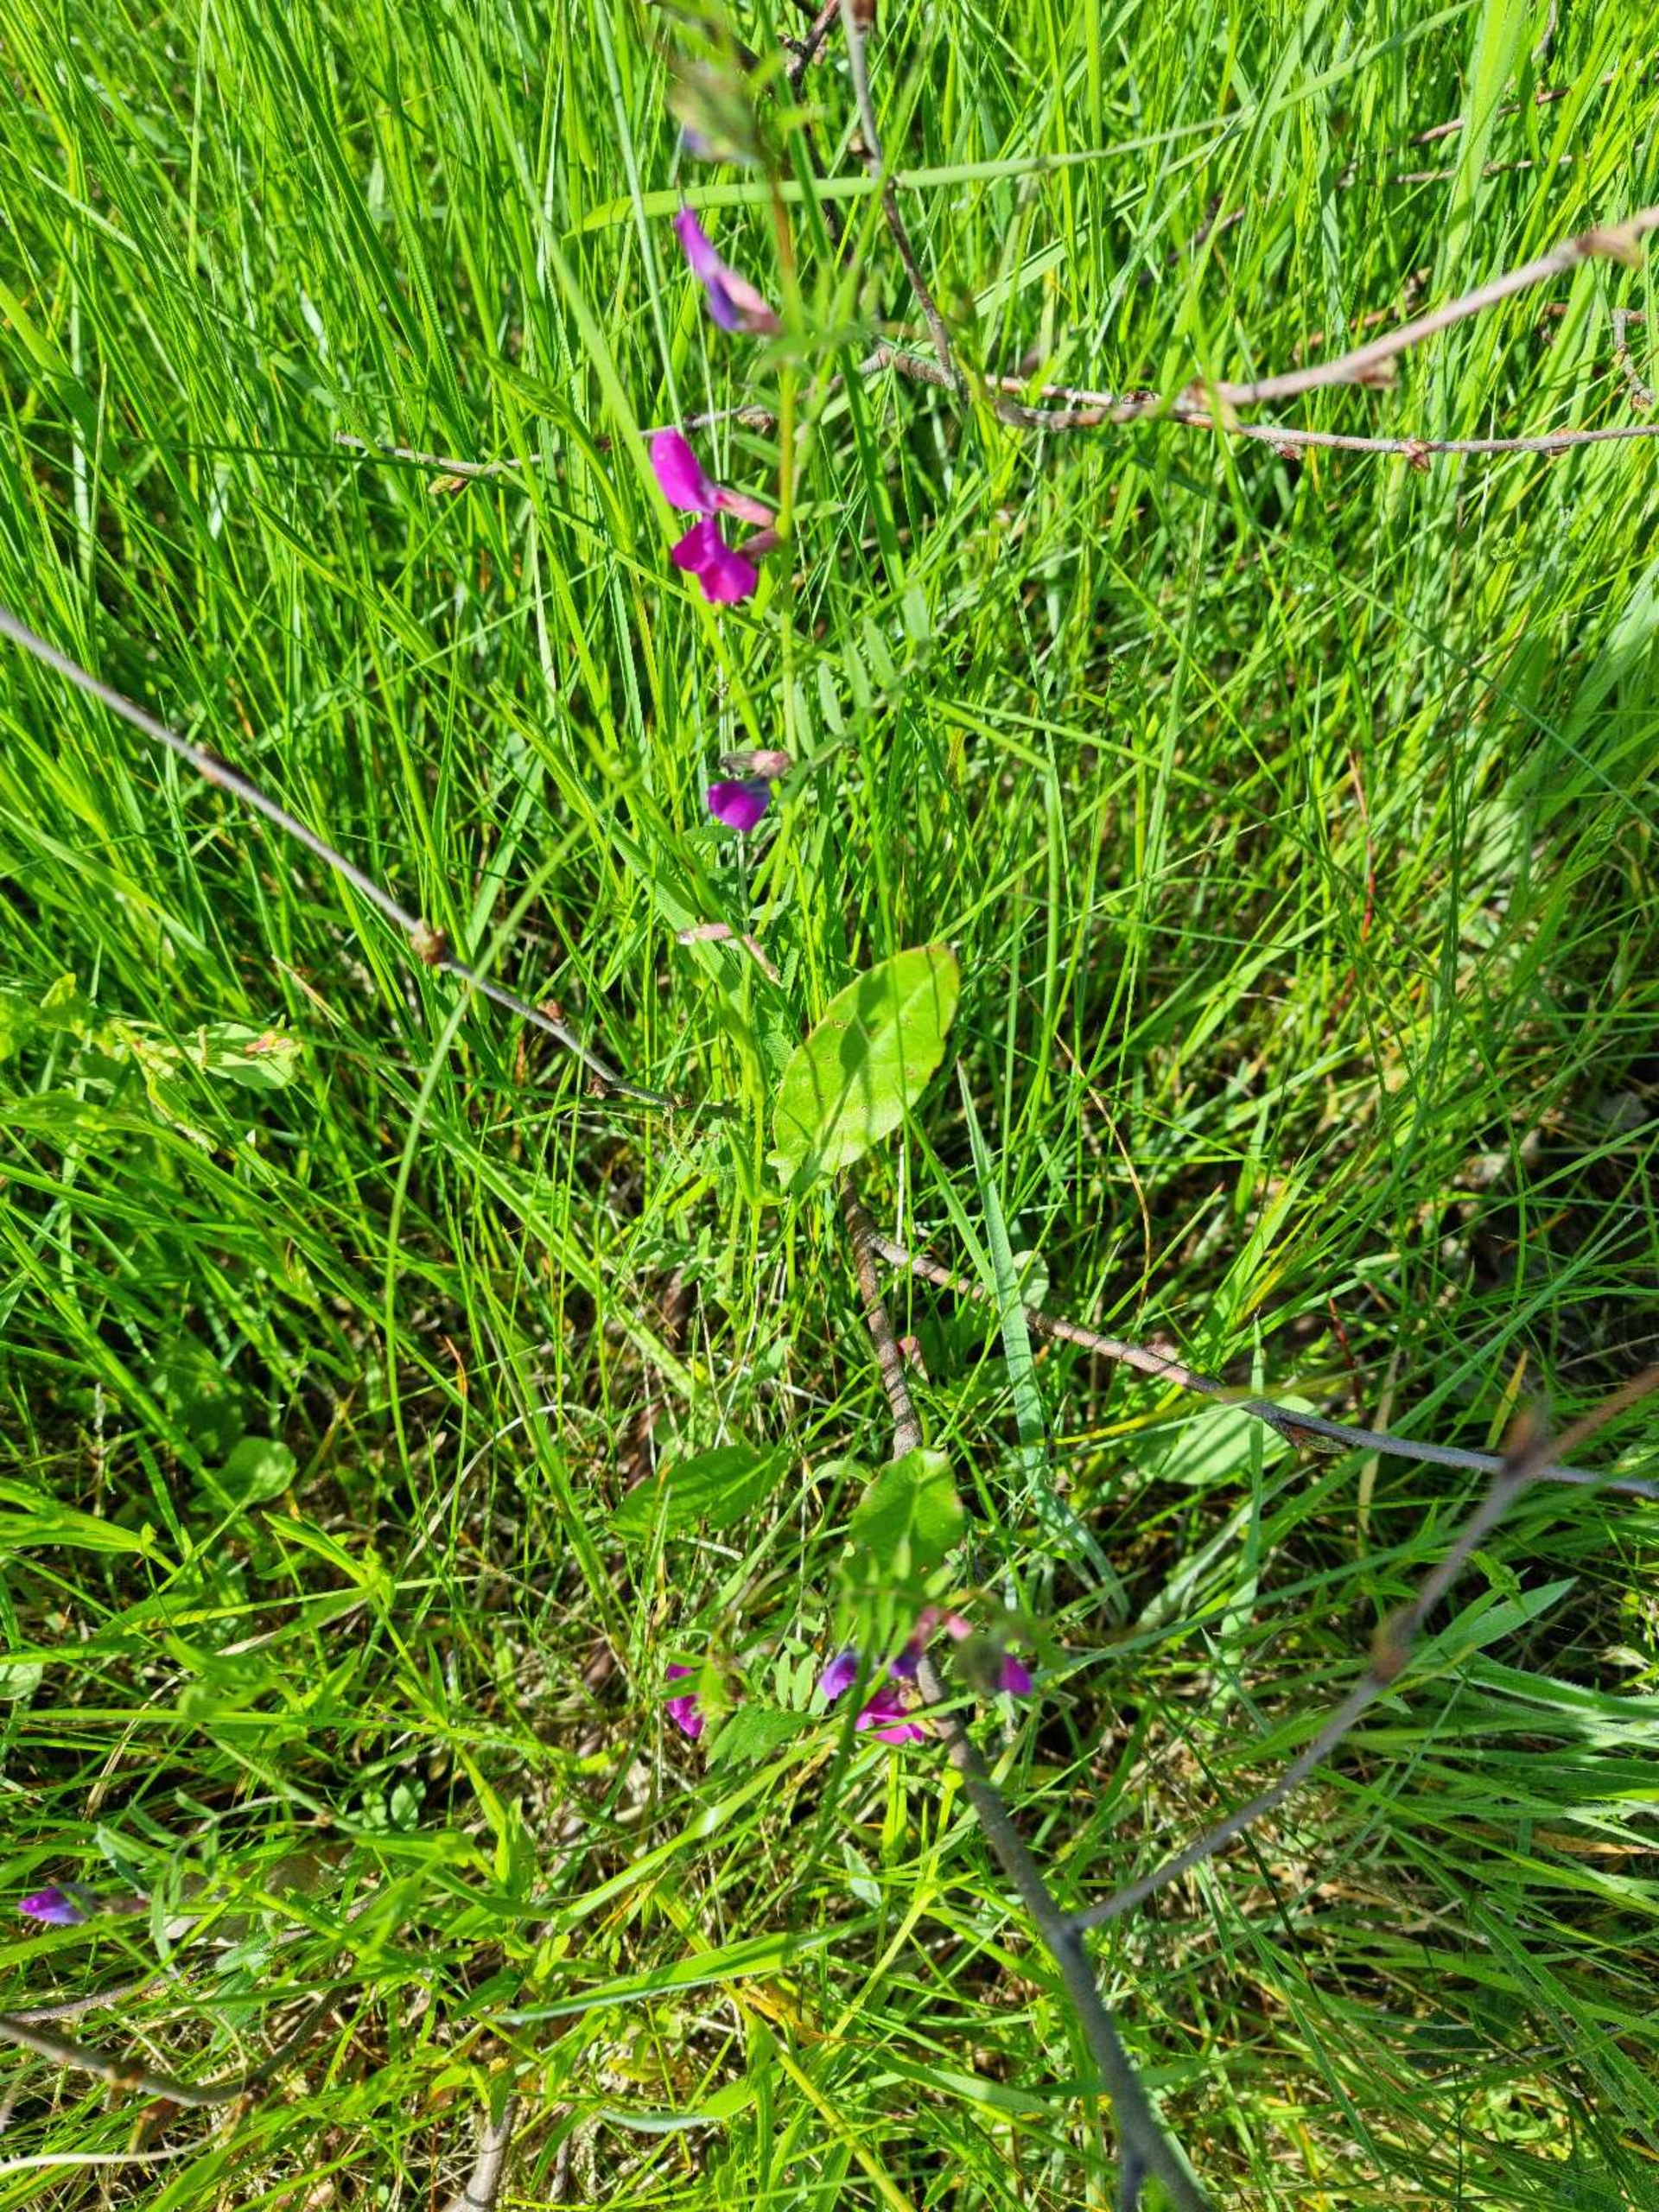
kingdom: Plantae
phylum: Tracheophyta
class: Magnoliopsida
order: Fabales
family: Fabaceae
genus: Vicia
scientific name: Vicia sativa
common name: Foder-vikke
